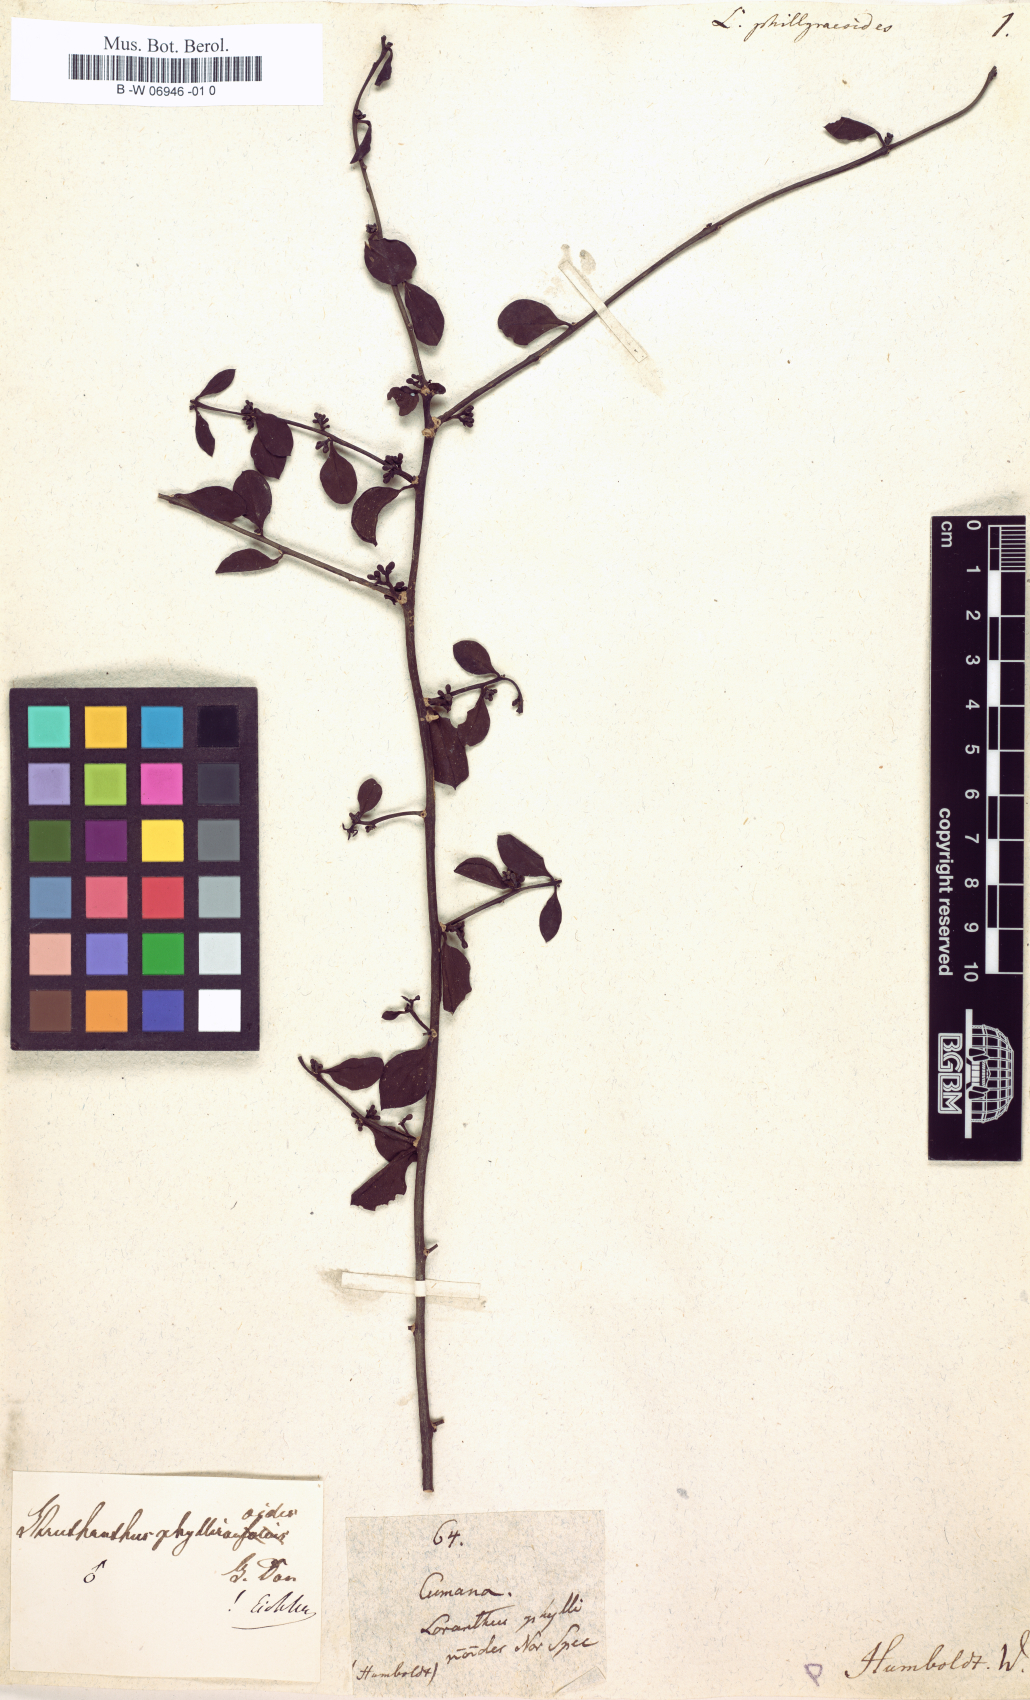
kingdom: Plantae
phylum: Tracheophyta
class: Magnoliopsida
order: Santalales
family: Loranthaceae
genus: Struthanthus
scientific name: Struthanthus phillyreoides
